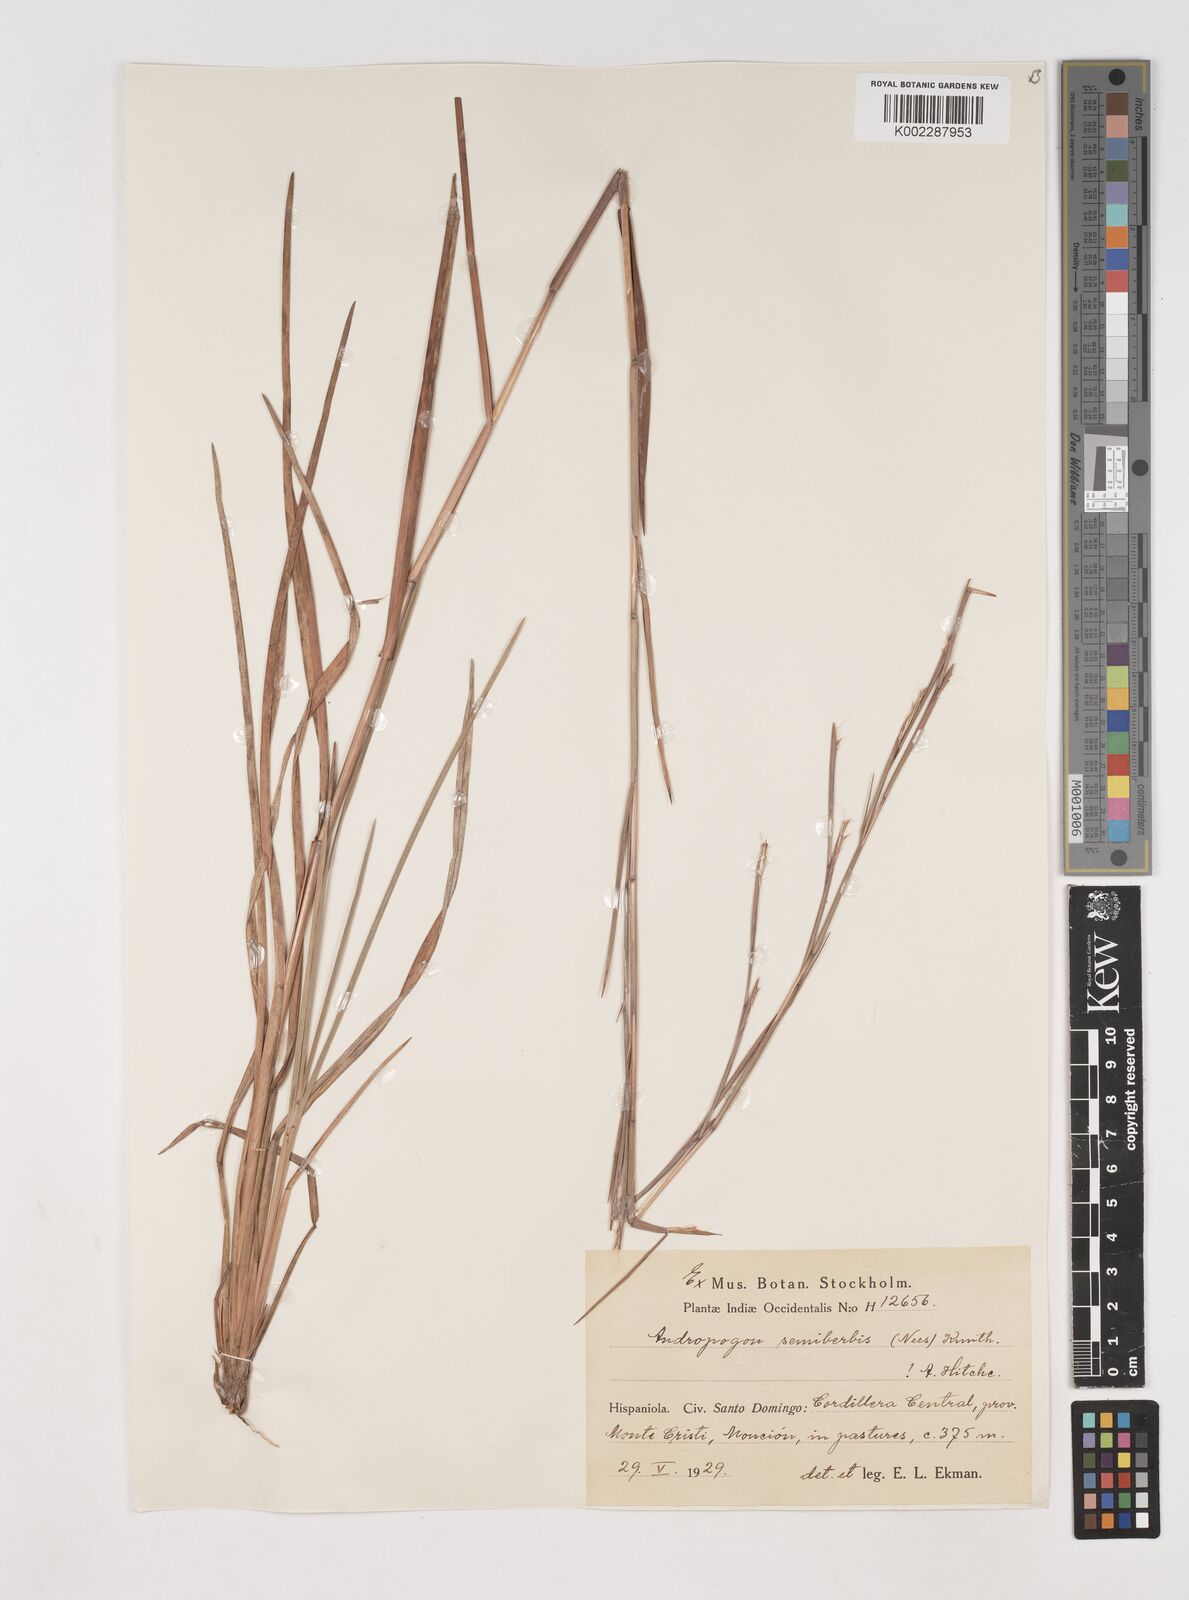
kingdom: Plantae
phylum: Tracheophyta
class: Liliopsida
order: Poales
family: Poaceae
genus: Schizachyrium
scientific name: Schizachyrium sanguineum
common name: Crimson bluestem
